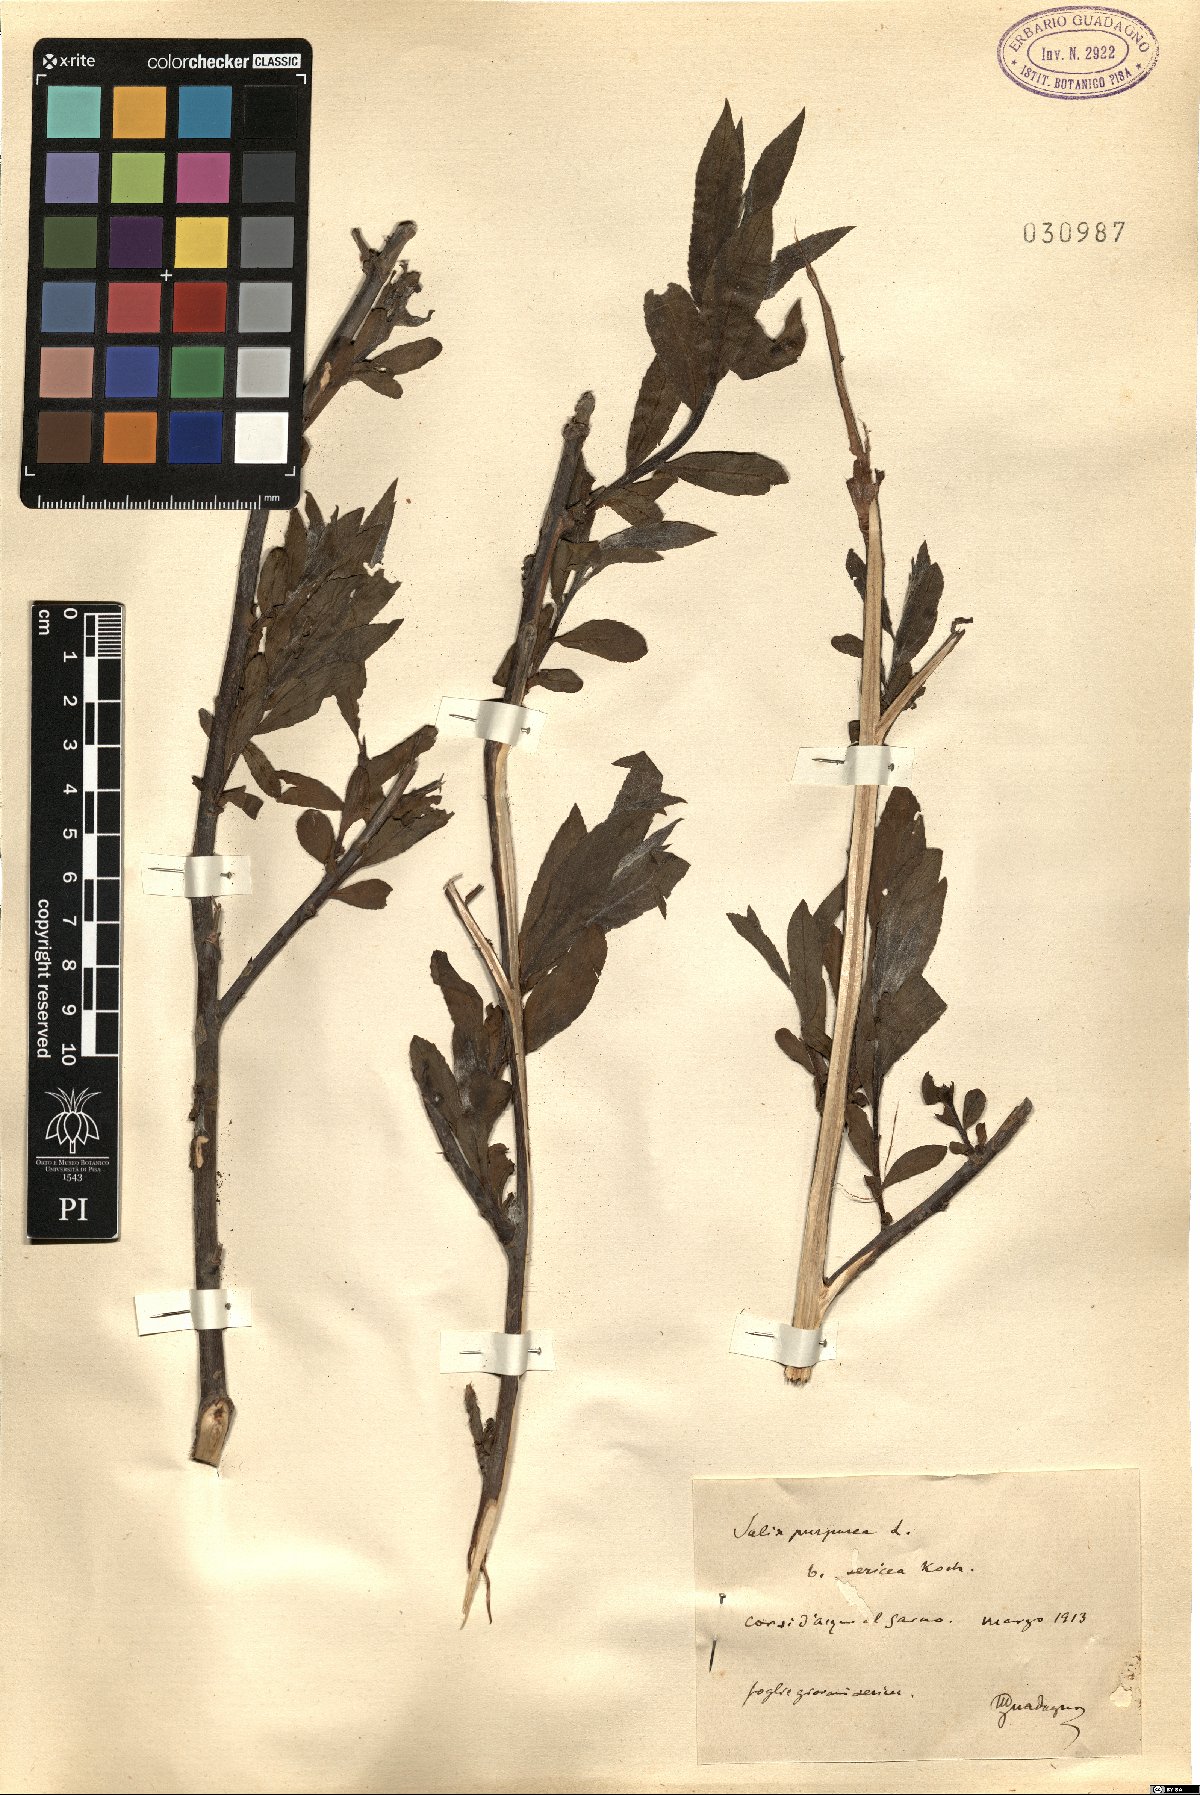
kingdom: Plantae
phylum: Tracheophyta
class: Magnoliopsida
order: Malpighiales
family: Salicaceae
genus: Salix
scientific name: Salix gilgiana
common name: Willow
